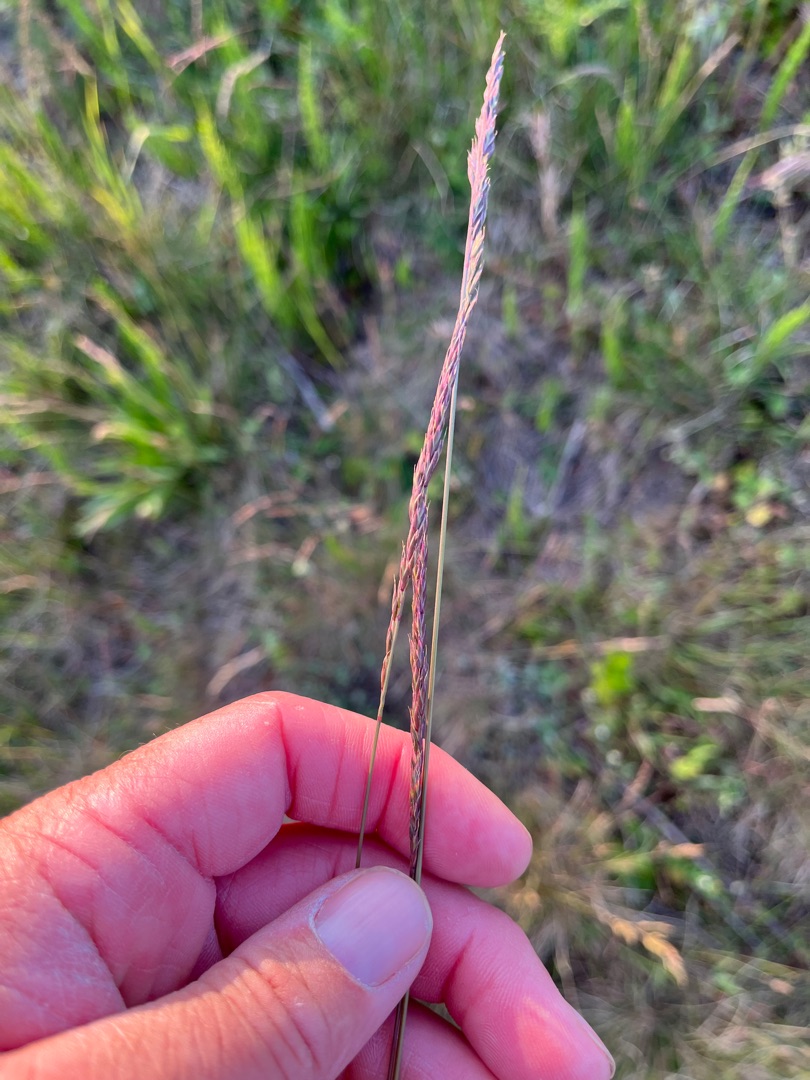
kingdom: Plantae
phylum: Tracheophyta
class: Liliopsida
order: Poales
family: Poaceae
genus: Festuca
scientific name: Festuca rubra
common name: Rød svingel
